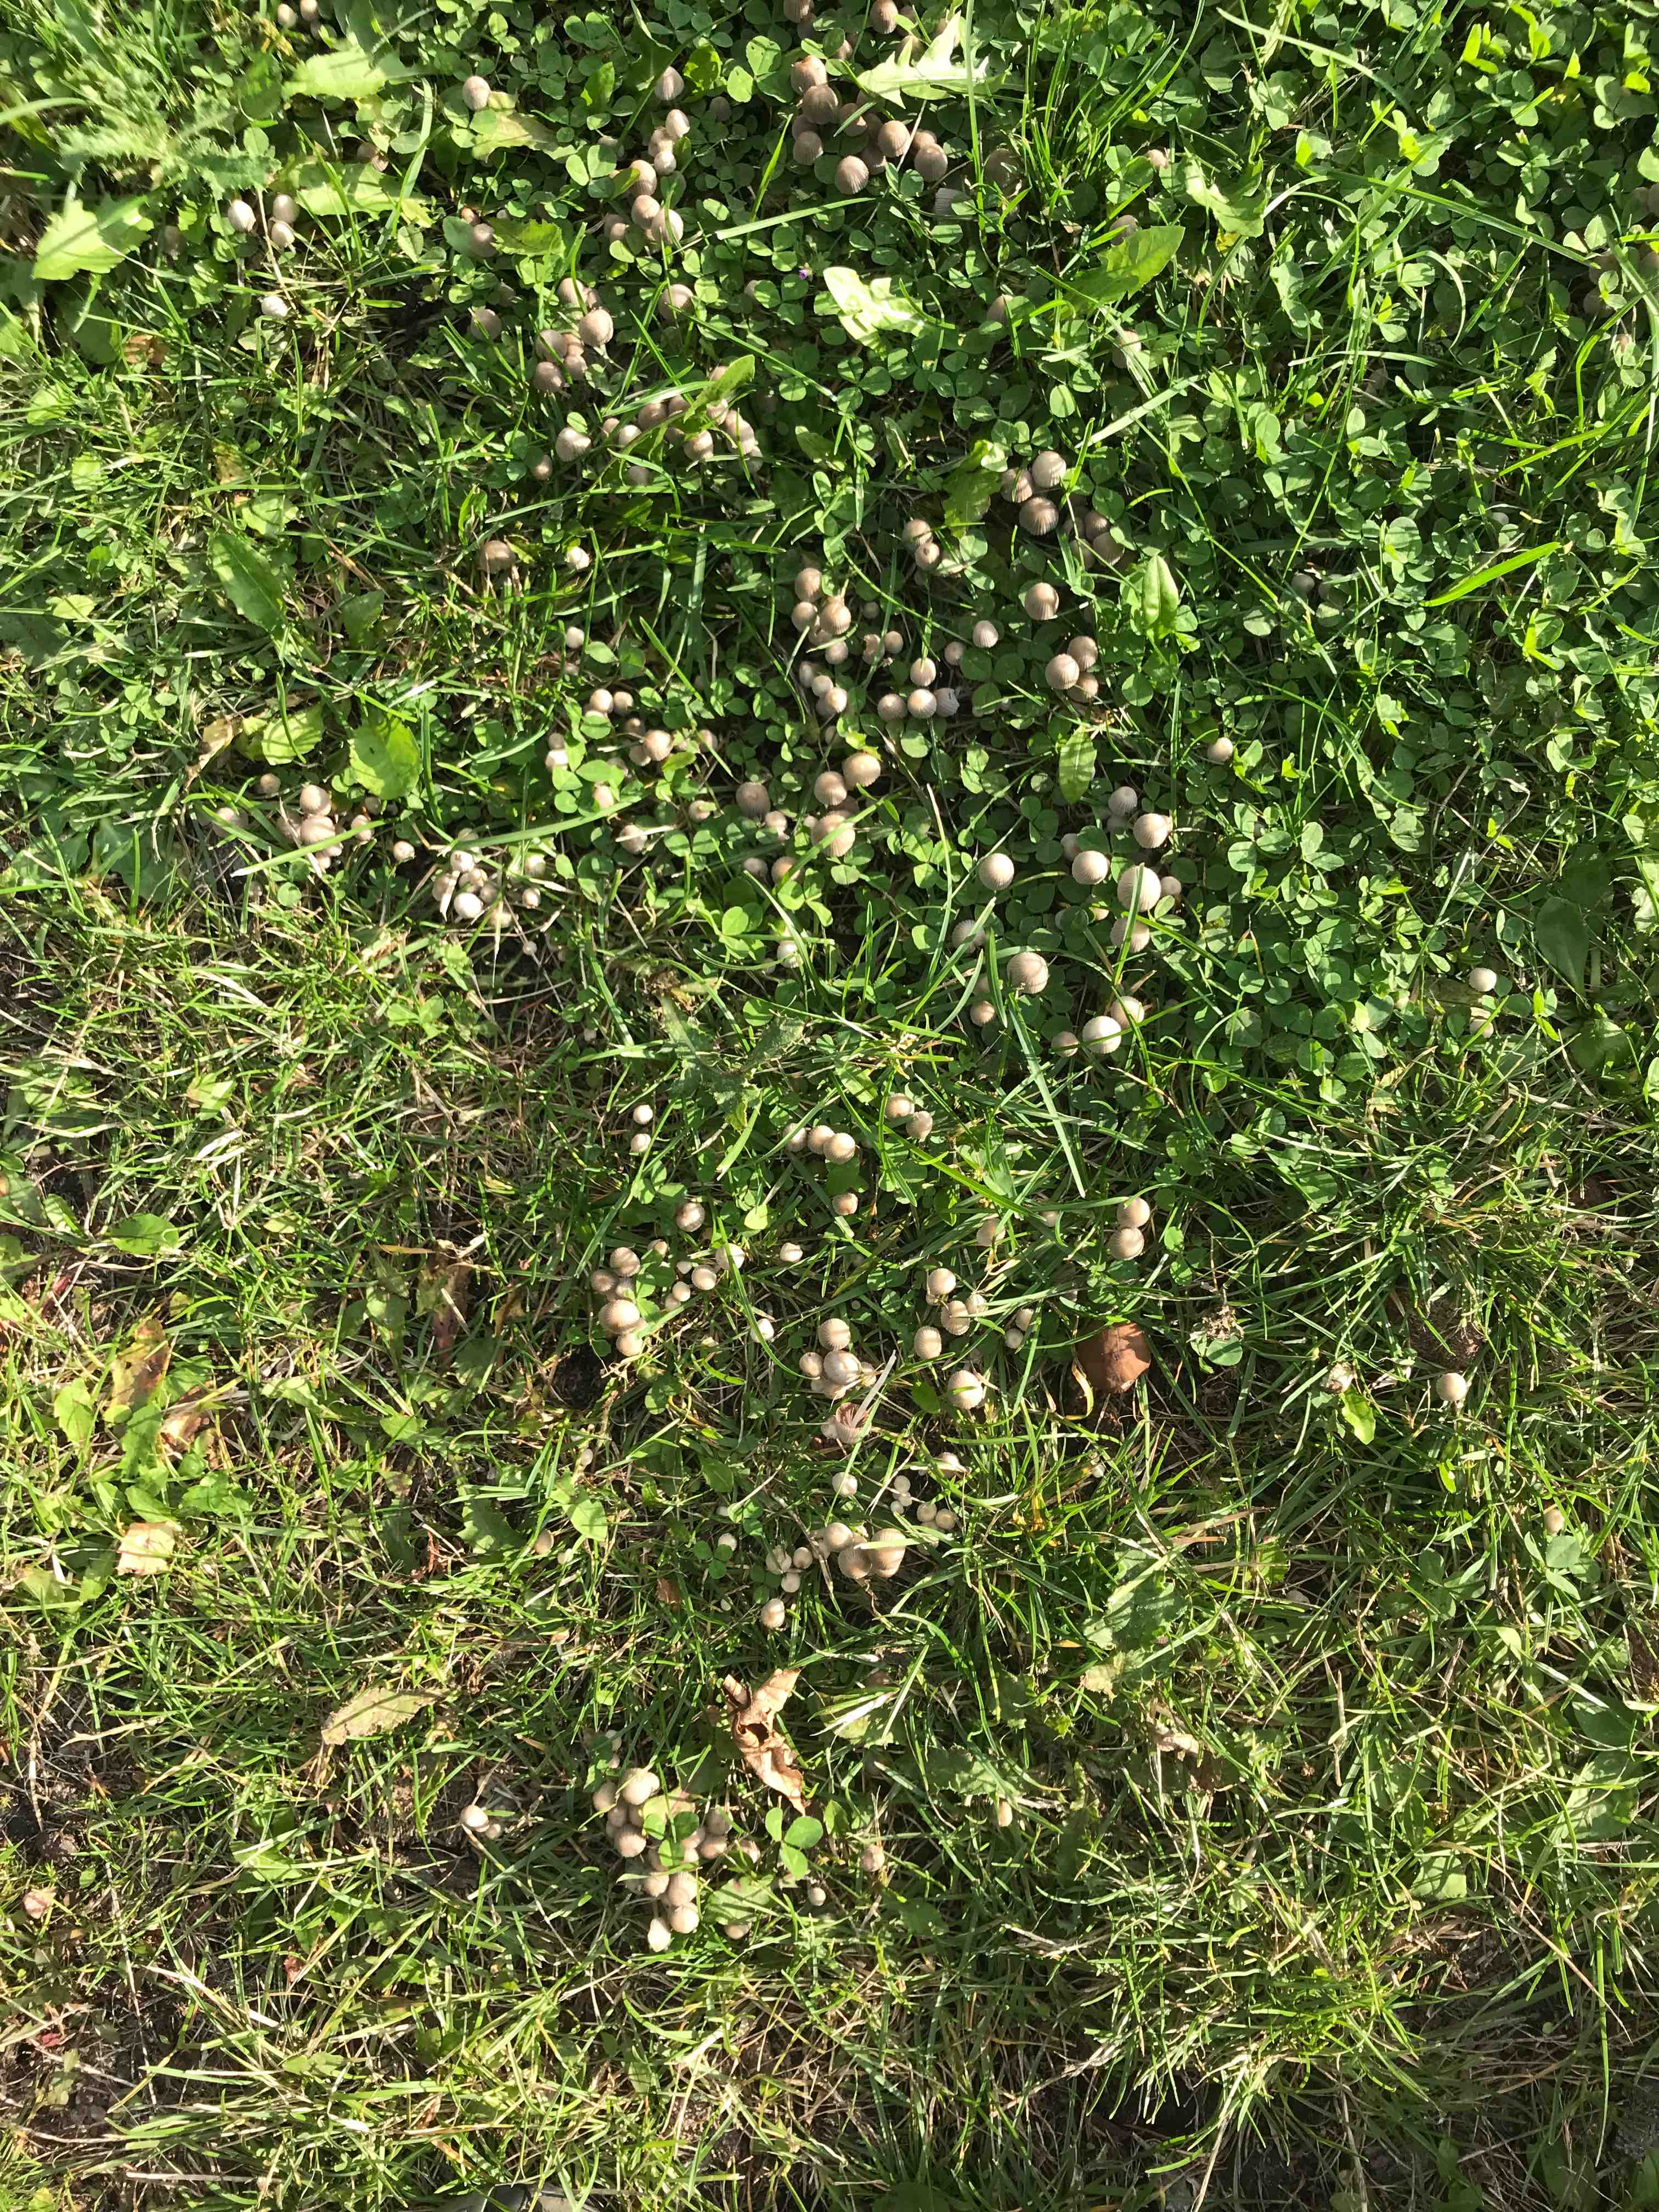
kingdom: Fungi
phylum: Basidiomycota
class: Agaricomycetes
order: Agaricales
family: Psathyrellaceae
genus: Coprinellus
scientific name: Coprinellus disseminatus
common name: bredsået blækhat
